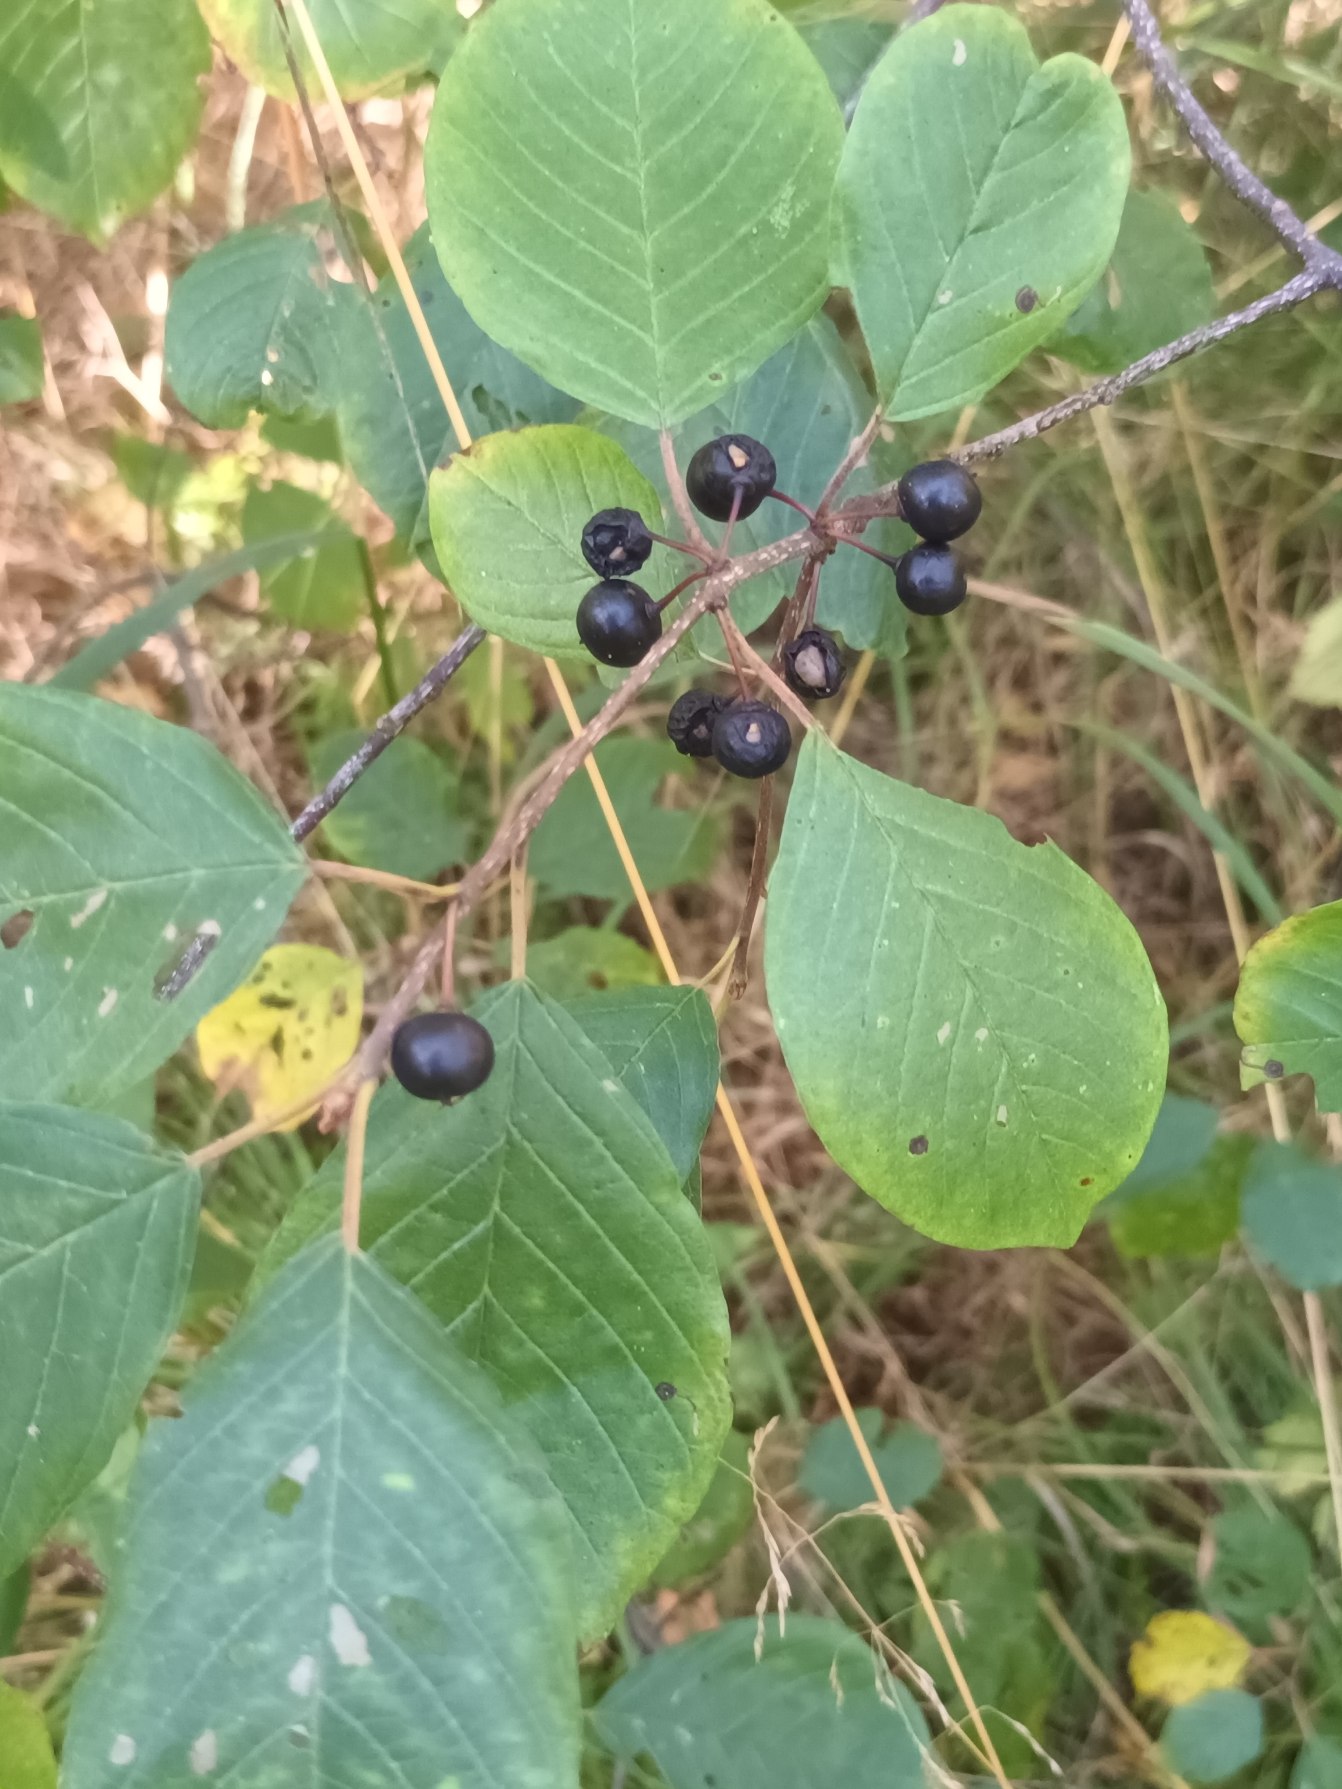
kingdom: Plantae
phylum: Tracheophyta
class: Magnoliopsida
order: Rosales
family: Rhamnaceae
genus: Frangula
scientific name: Frangula alnus
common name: Tørst
